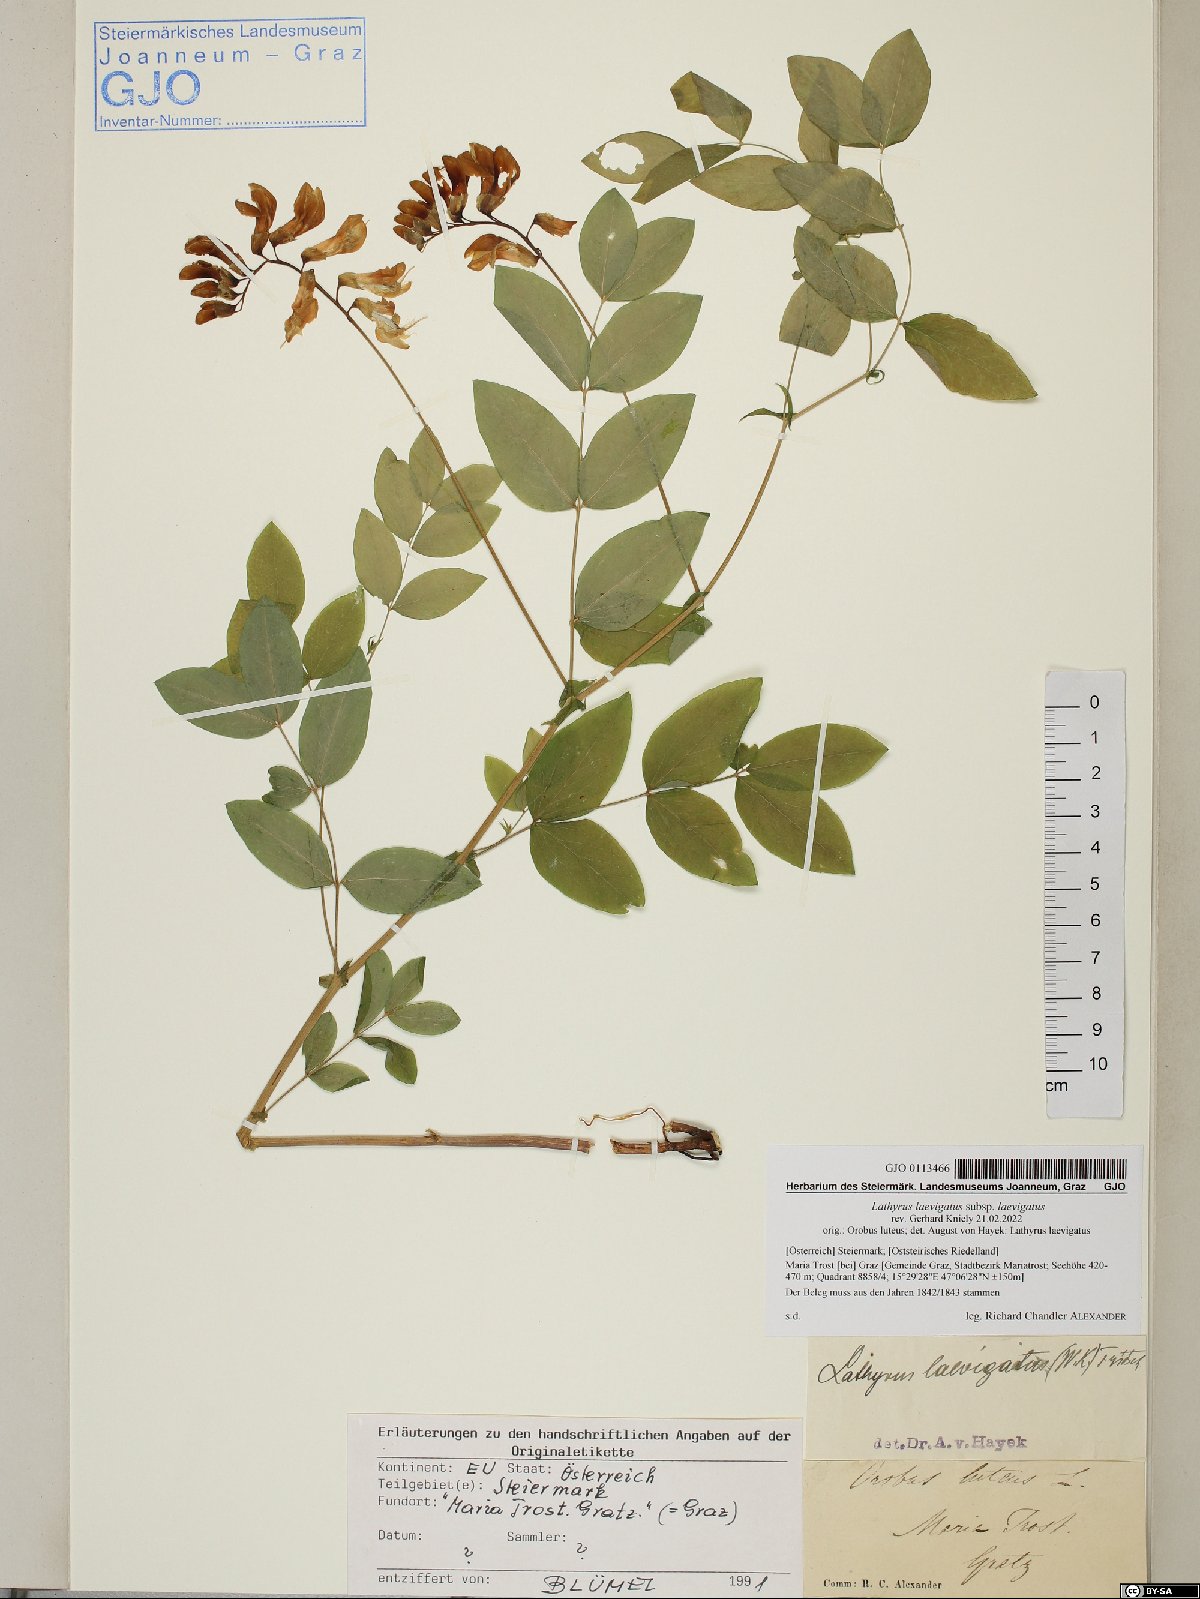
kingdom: Plantae
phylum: Tracheophyta
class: Magnoliopsida
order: Fabales
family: Fabaceae
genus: Lathyrus
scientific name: Lathyrus laevigatus
